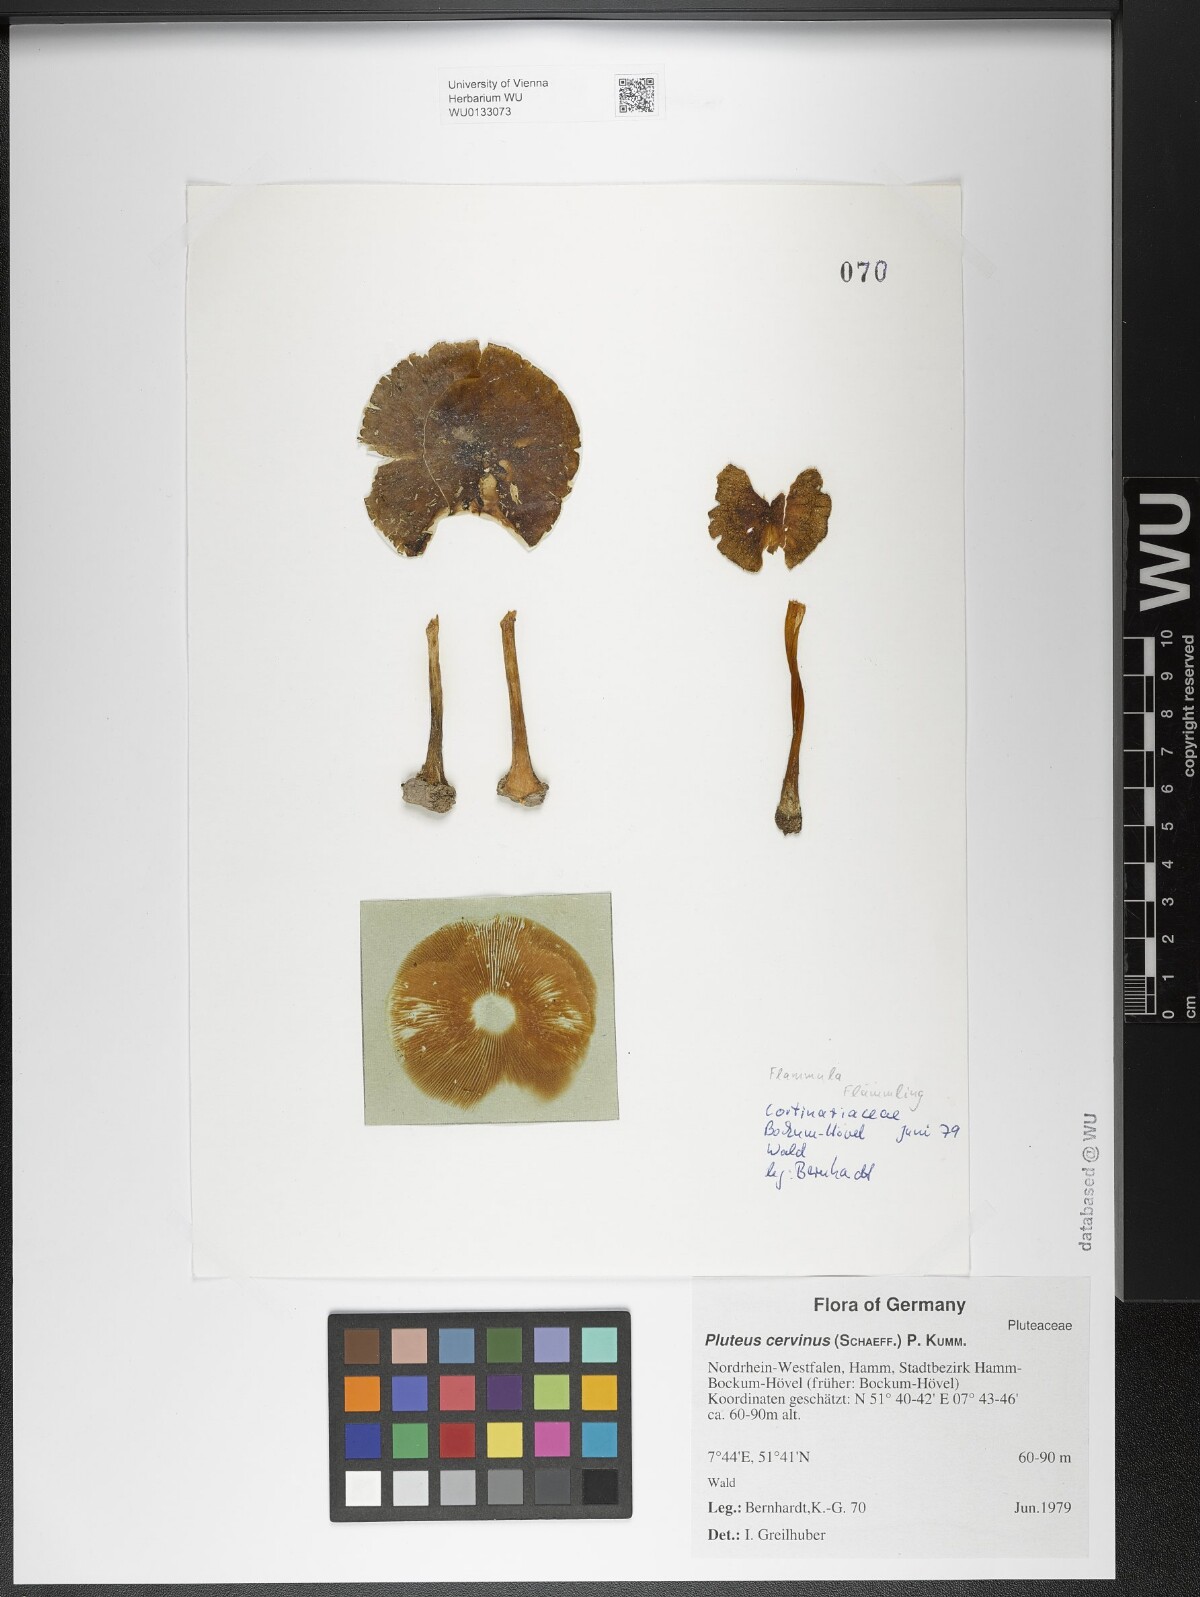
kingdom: Fungi
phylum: Basidiomycota
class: Agaricomycetes
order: Agaricales
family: Pluteaceae
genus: Pluteus
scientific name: Pluteus cervinus
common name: Deer shield
